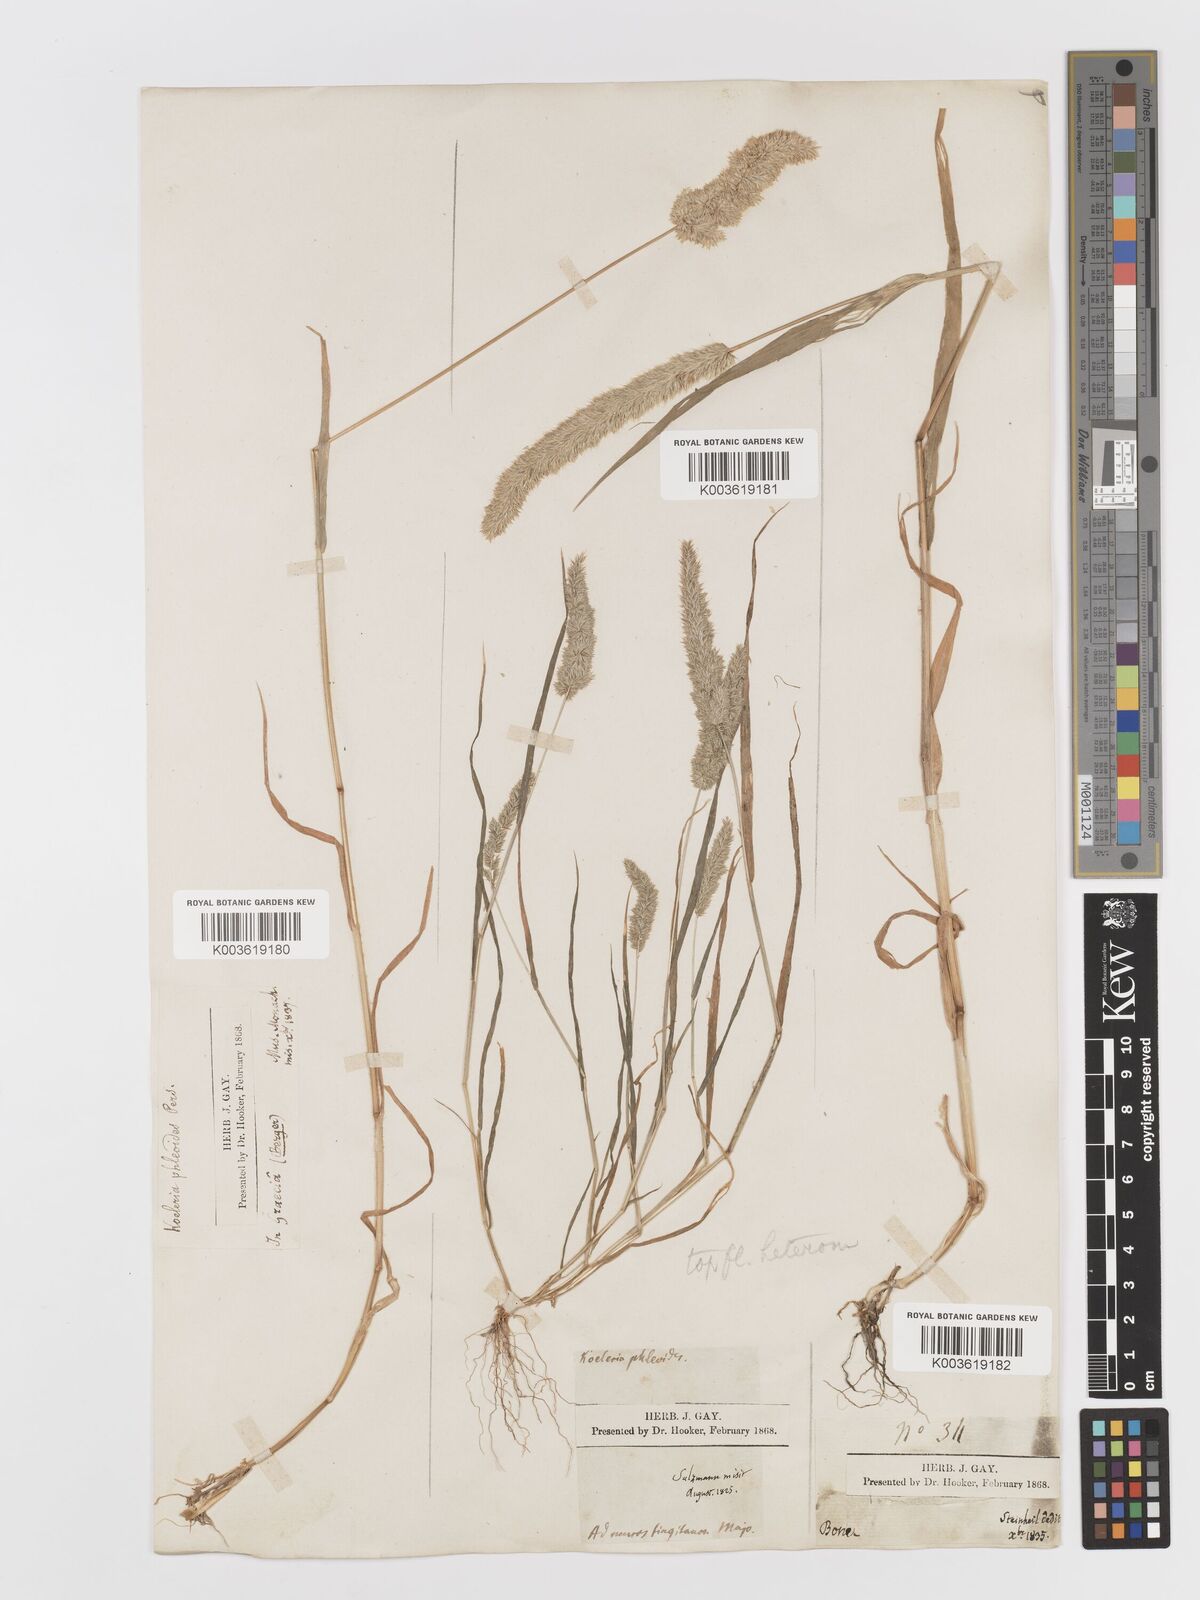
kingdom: Plantae
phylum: Tracheophyta
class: Liliopsida
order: Poales
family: Poaceae
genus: Rostraria
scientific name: Rostraria cristata
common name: Mediterranean hair-grass
